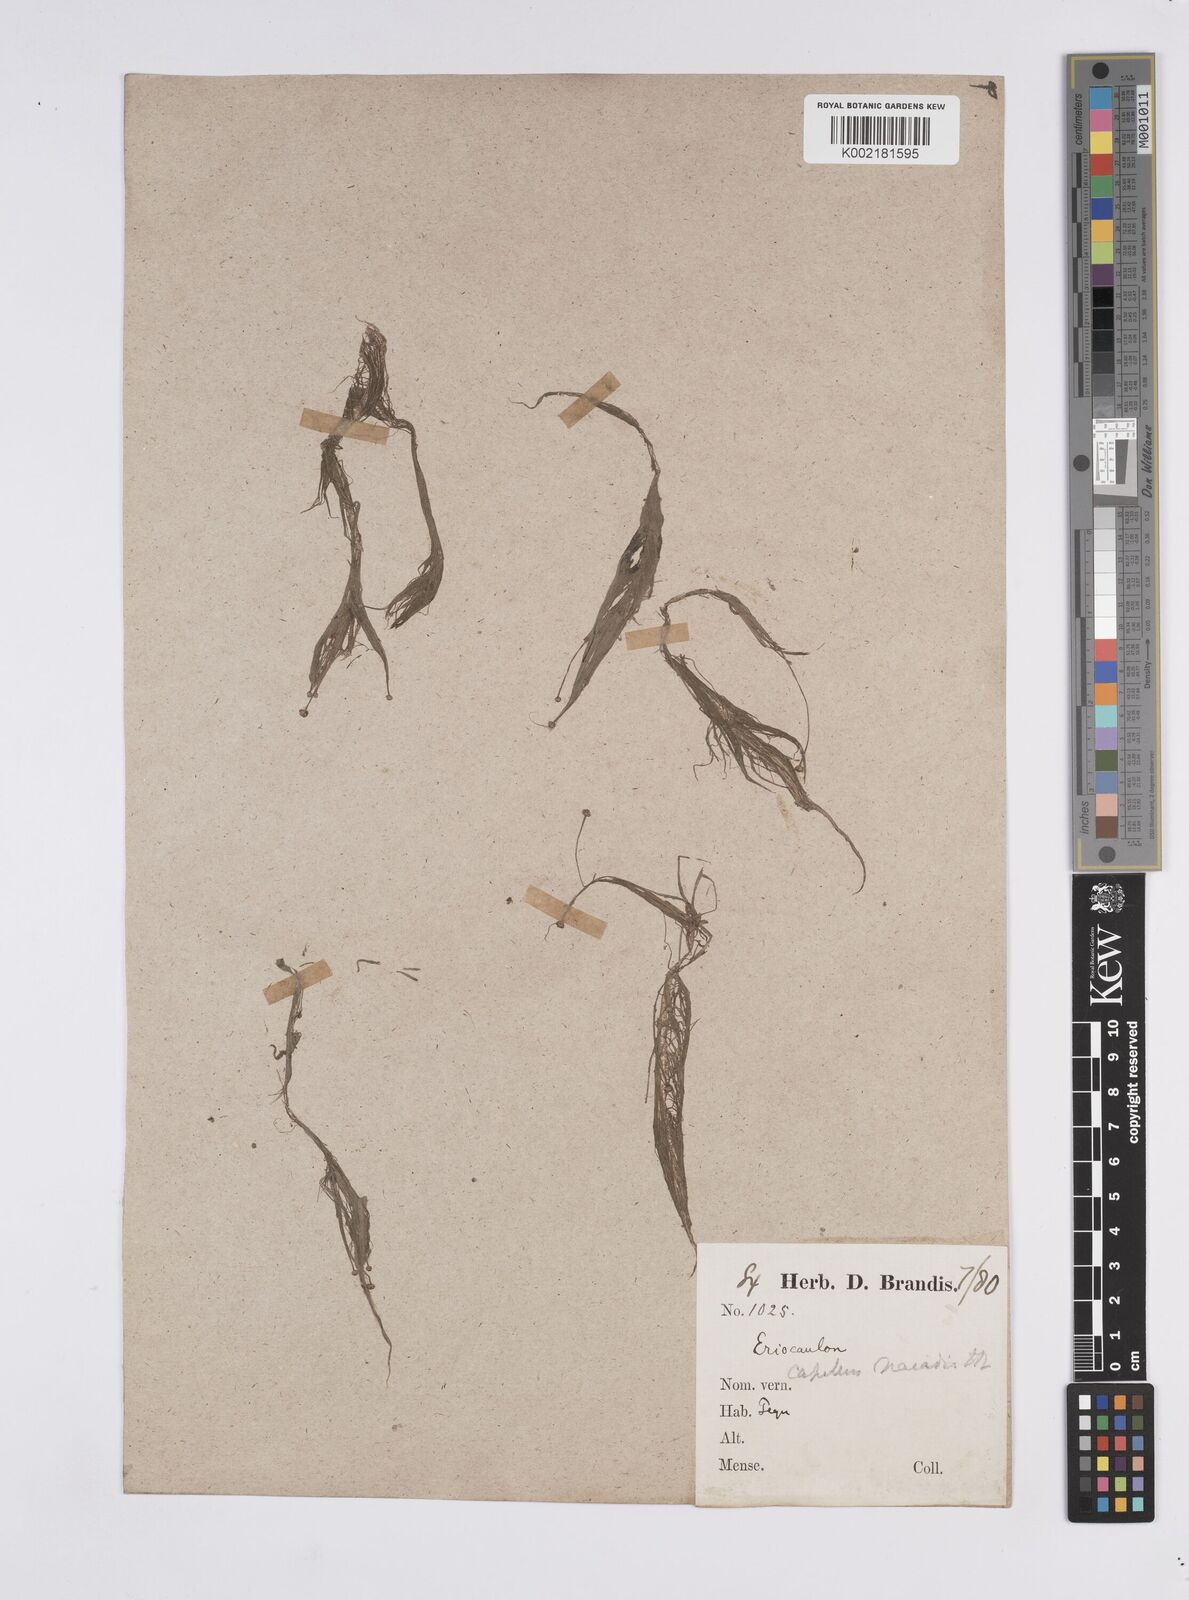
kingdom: Plantae
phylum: Tracheophyta
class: Liliopsida
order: Poales
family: Eriocaulaceae
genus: Eriocaulon
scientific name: Eriocaulon setaceum
